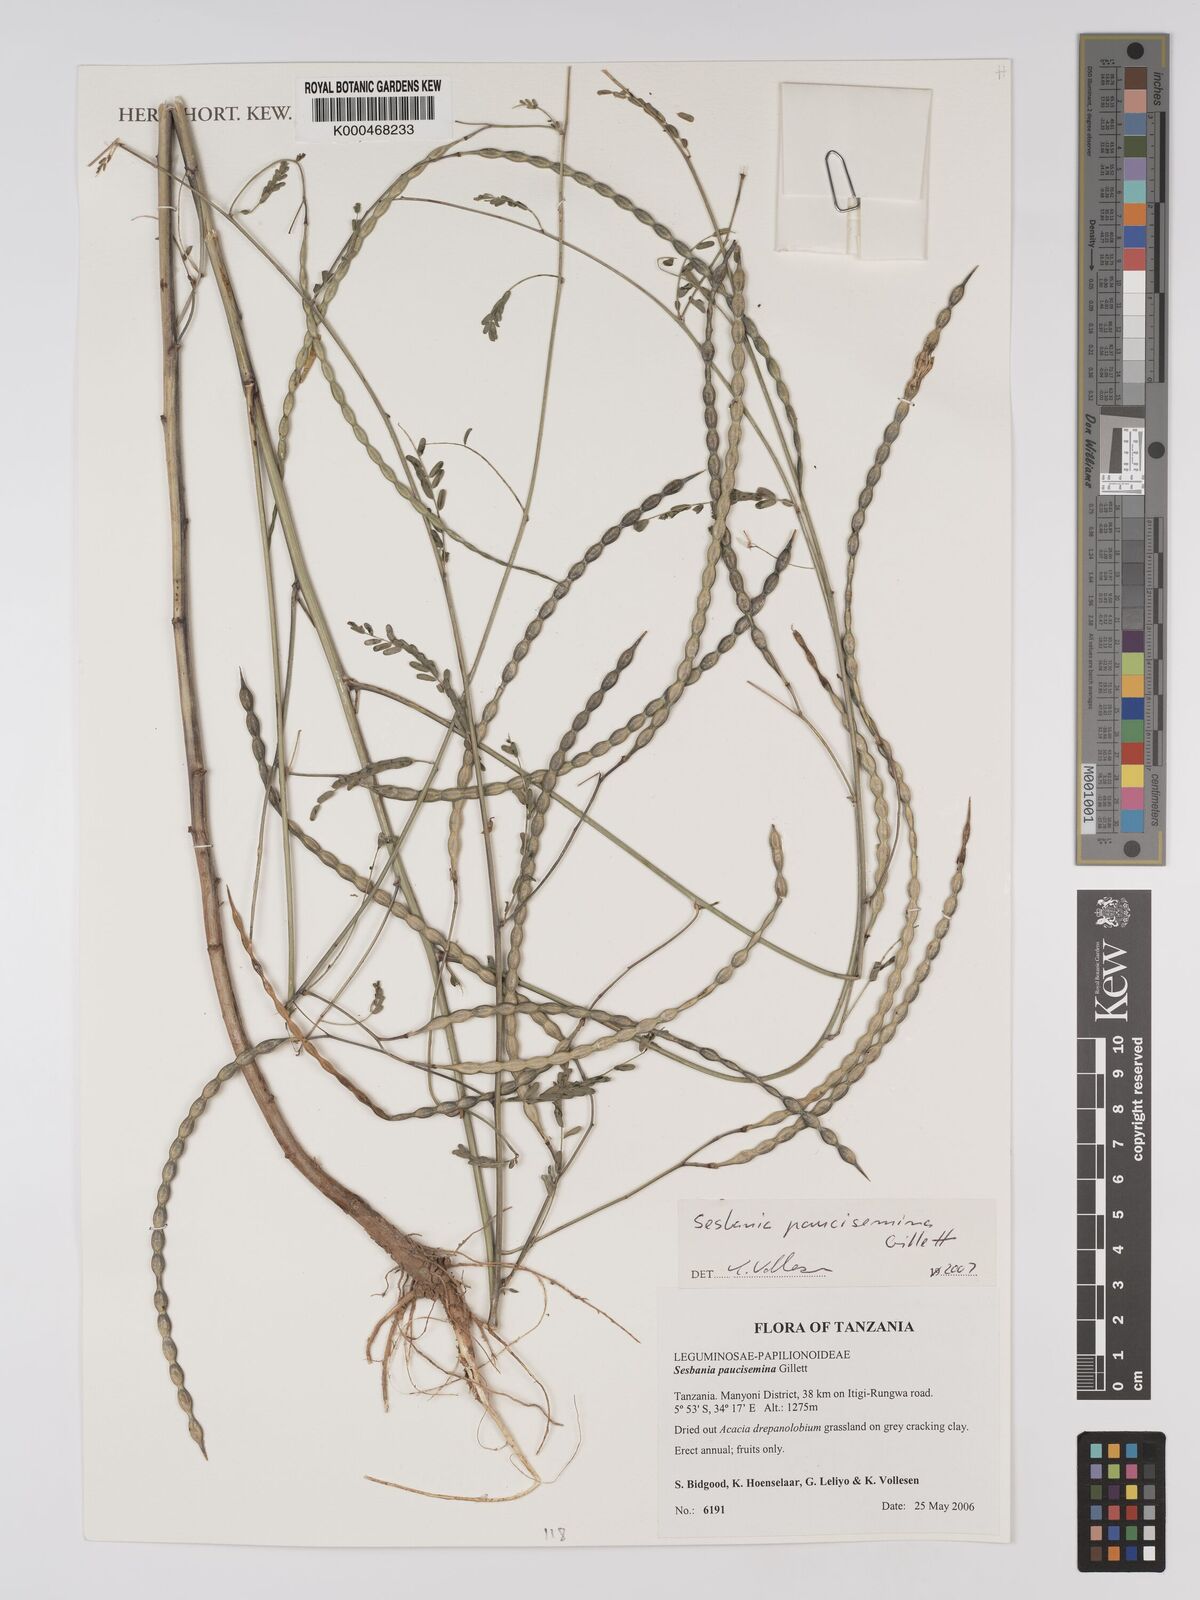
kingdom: Plantae
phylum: Tracheophyta
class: Magnoliopsida
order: Fabales
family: Fabaceae
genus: Sesbania
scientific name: Sesbania paucisemina
